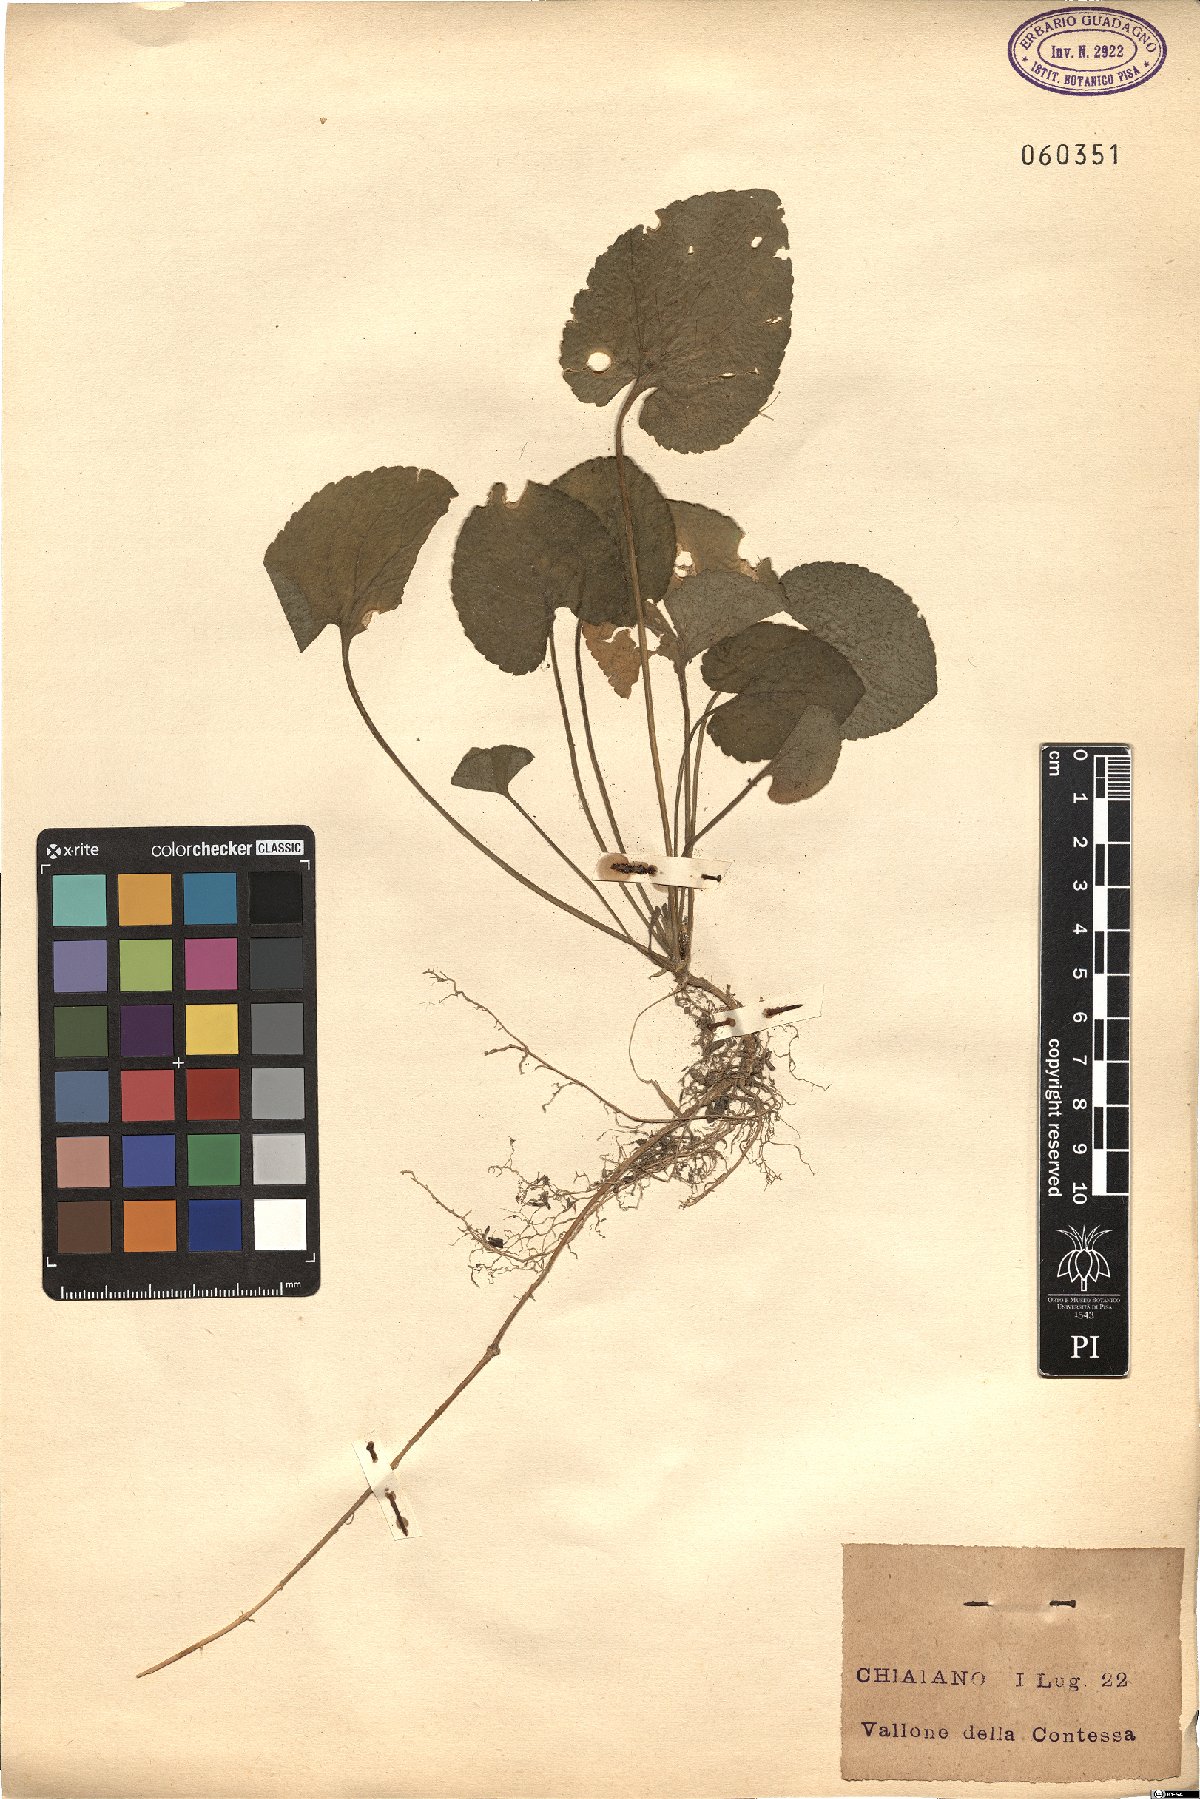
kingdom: Plantae
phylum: Tracheophyta
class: Magnoliopsida
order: Malpighiales
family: Violaceae
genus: Viola
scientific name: Viola
